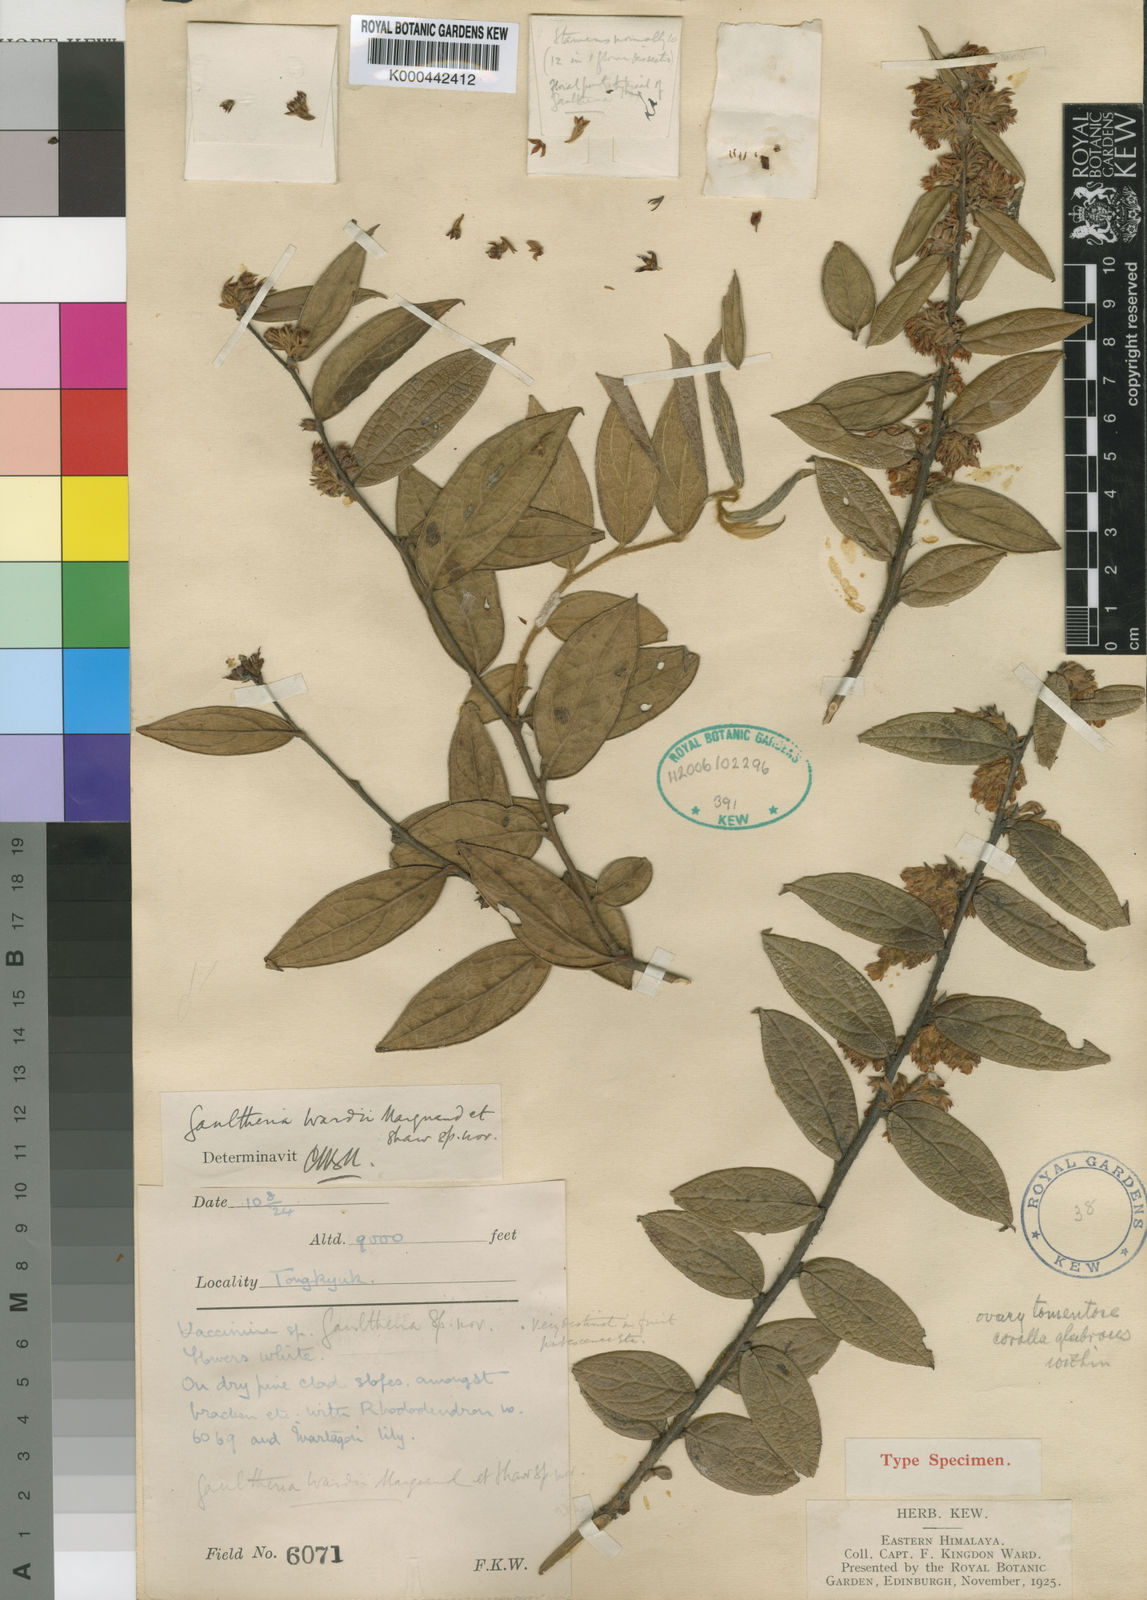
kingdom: Plantae
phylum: Tracheophyta
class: Magnoliopsida
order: Ericales
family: Ericaceae
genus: Gaultheria
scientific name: Gaultheria wardii
